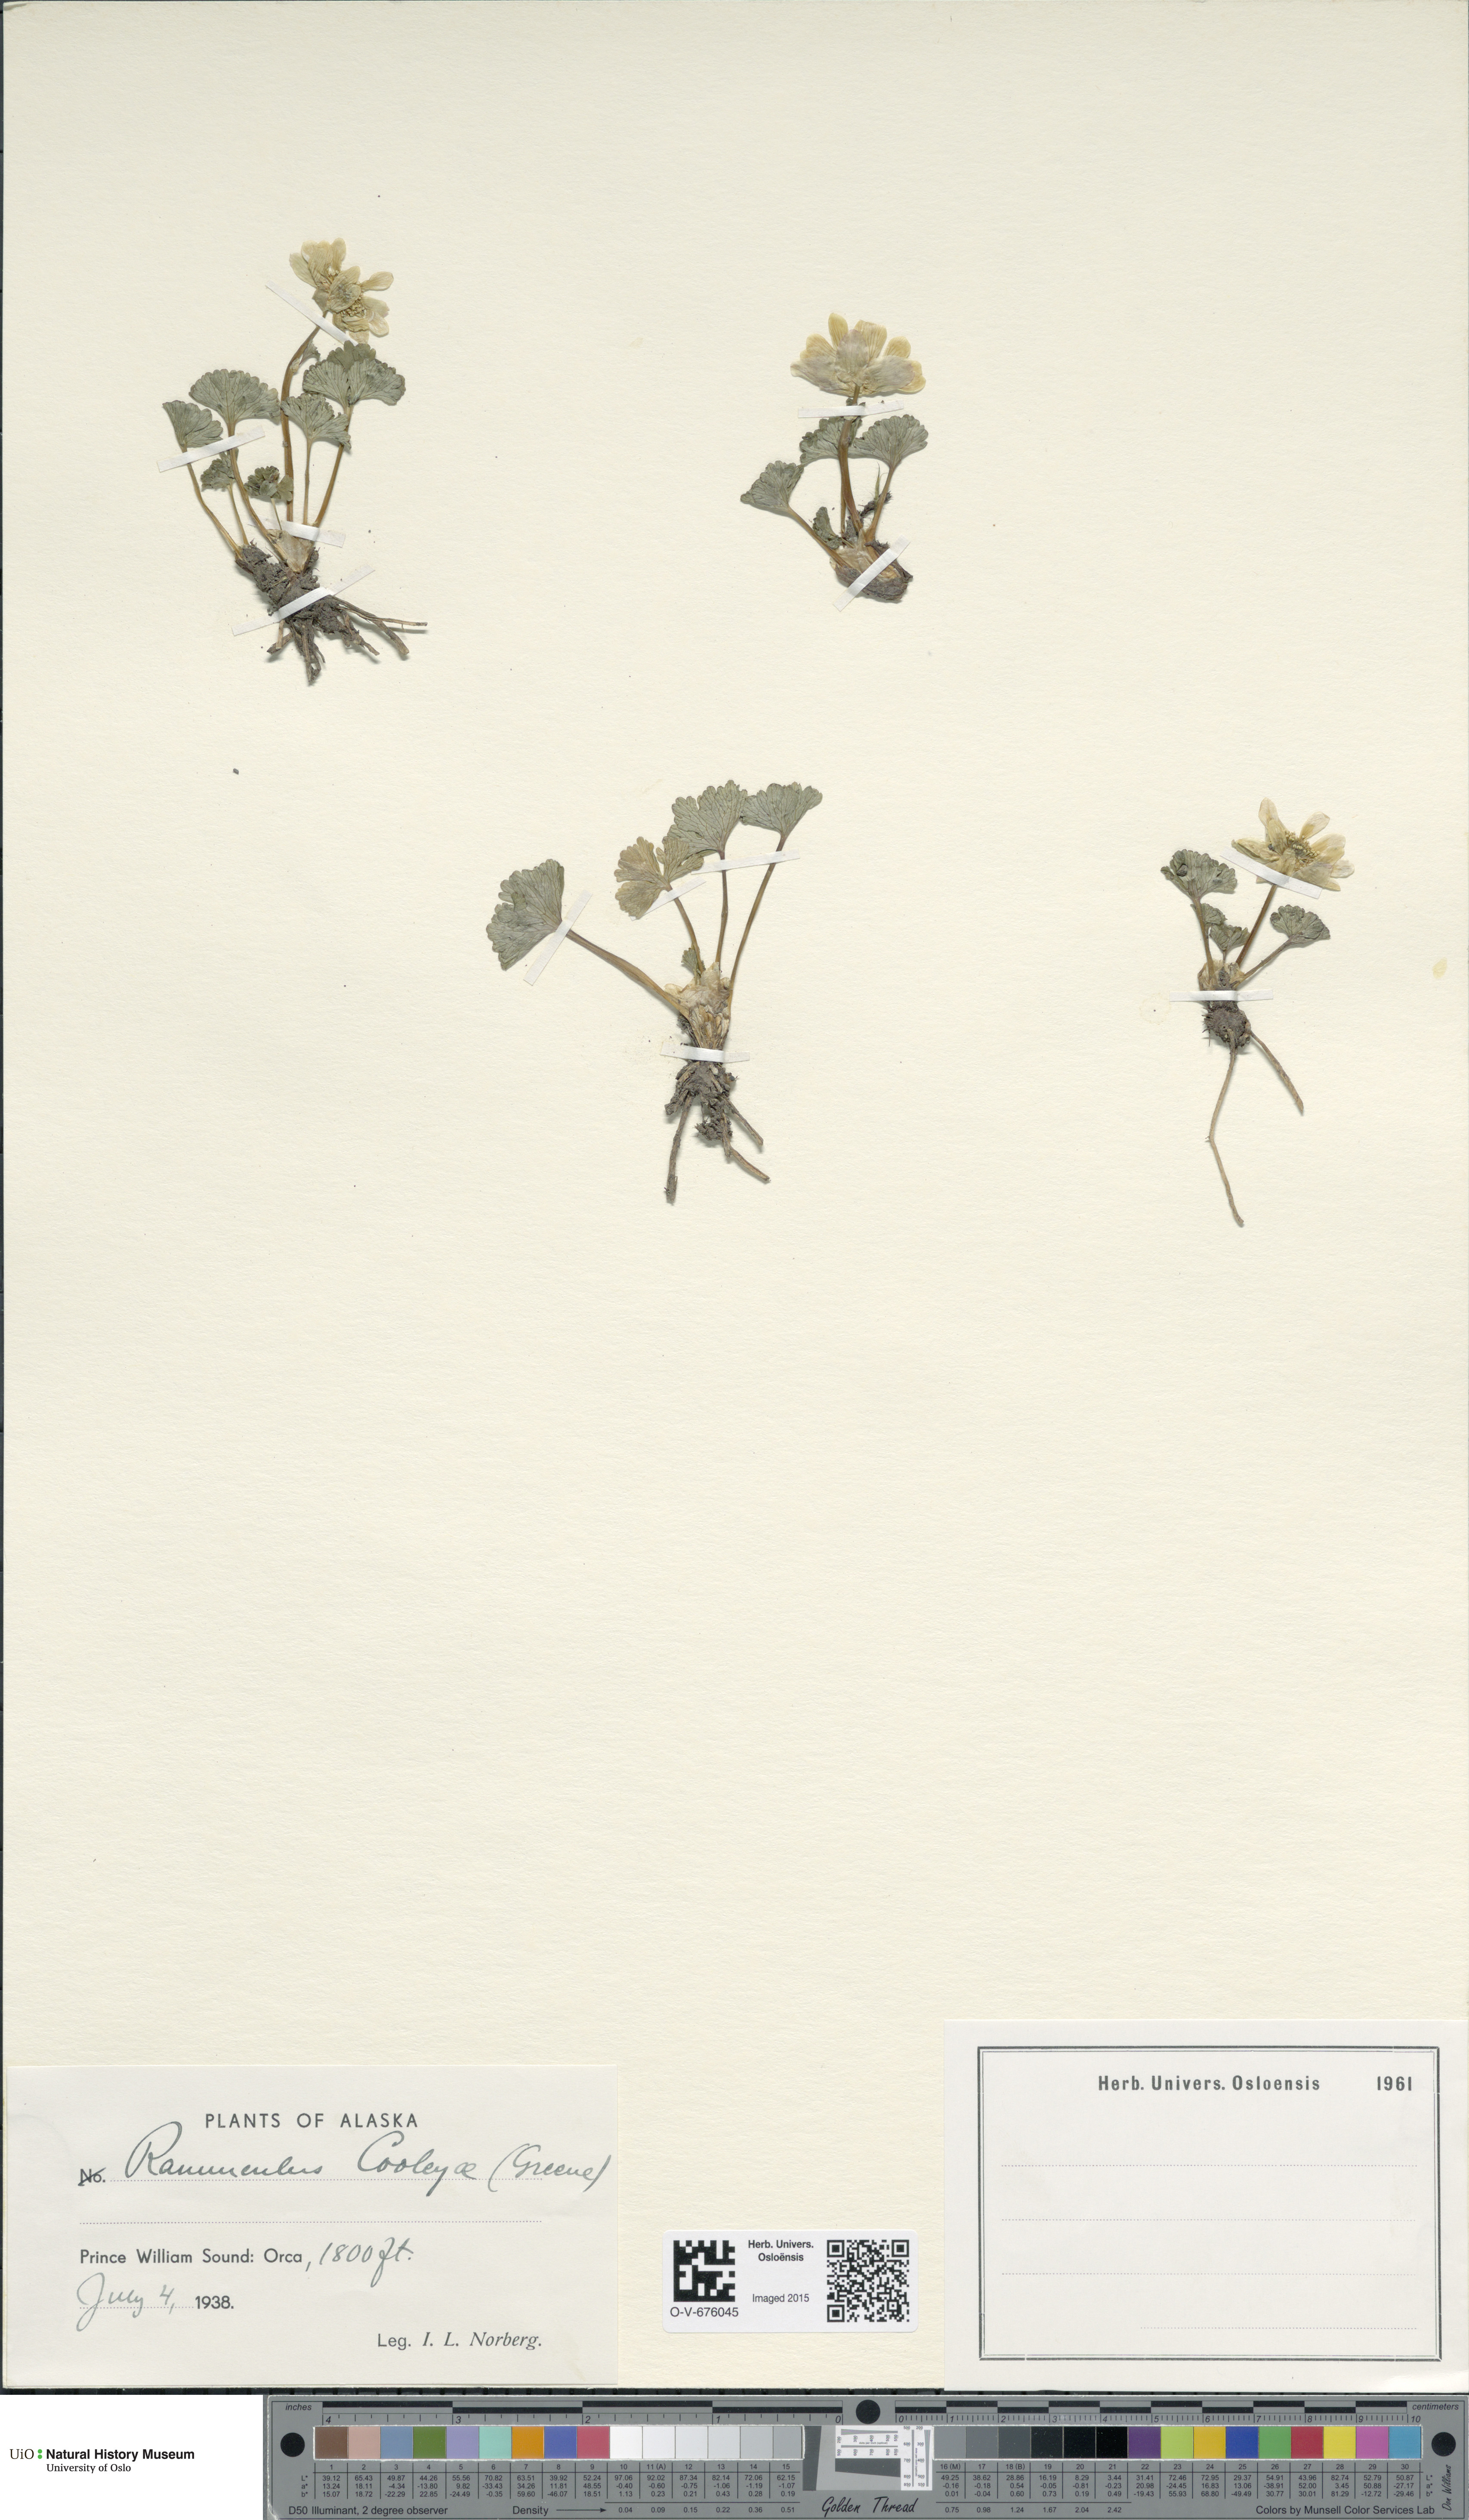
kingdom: Plantae
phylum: Tracheophyta
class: Magnoliopsida
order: Ranunculales
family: Ranunculaceae
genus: Arcteranthis
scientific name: Arcteranthis cooleyae
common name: Cooley's buttercup
